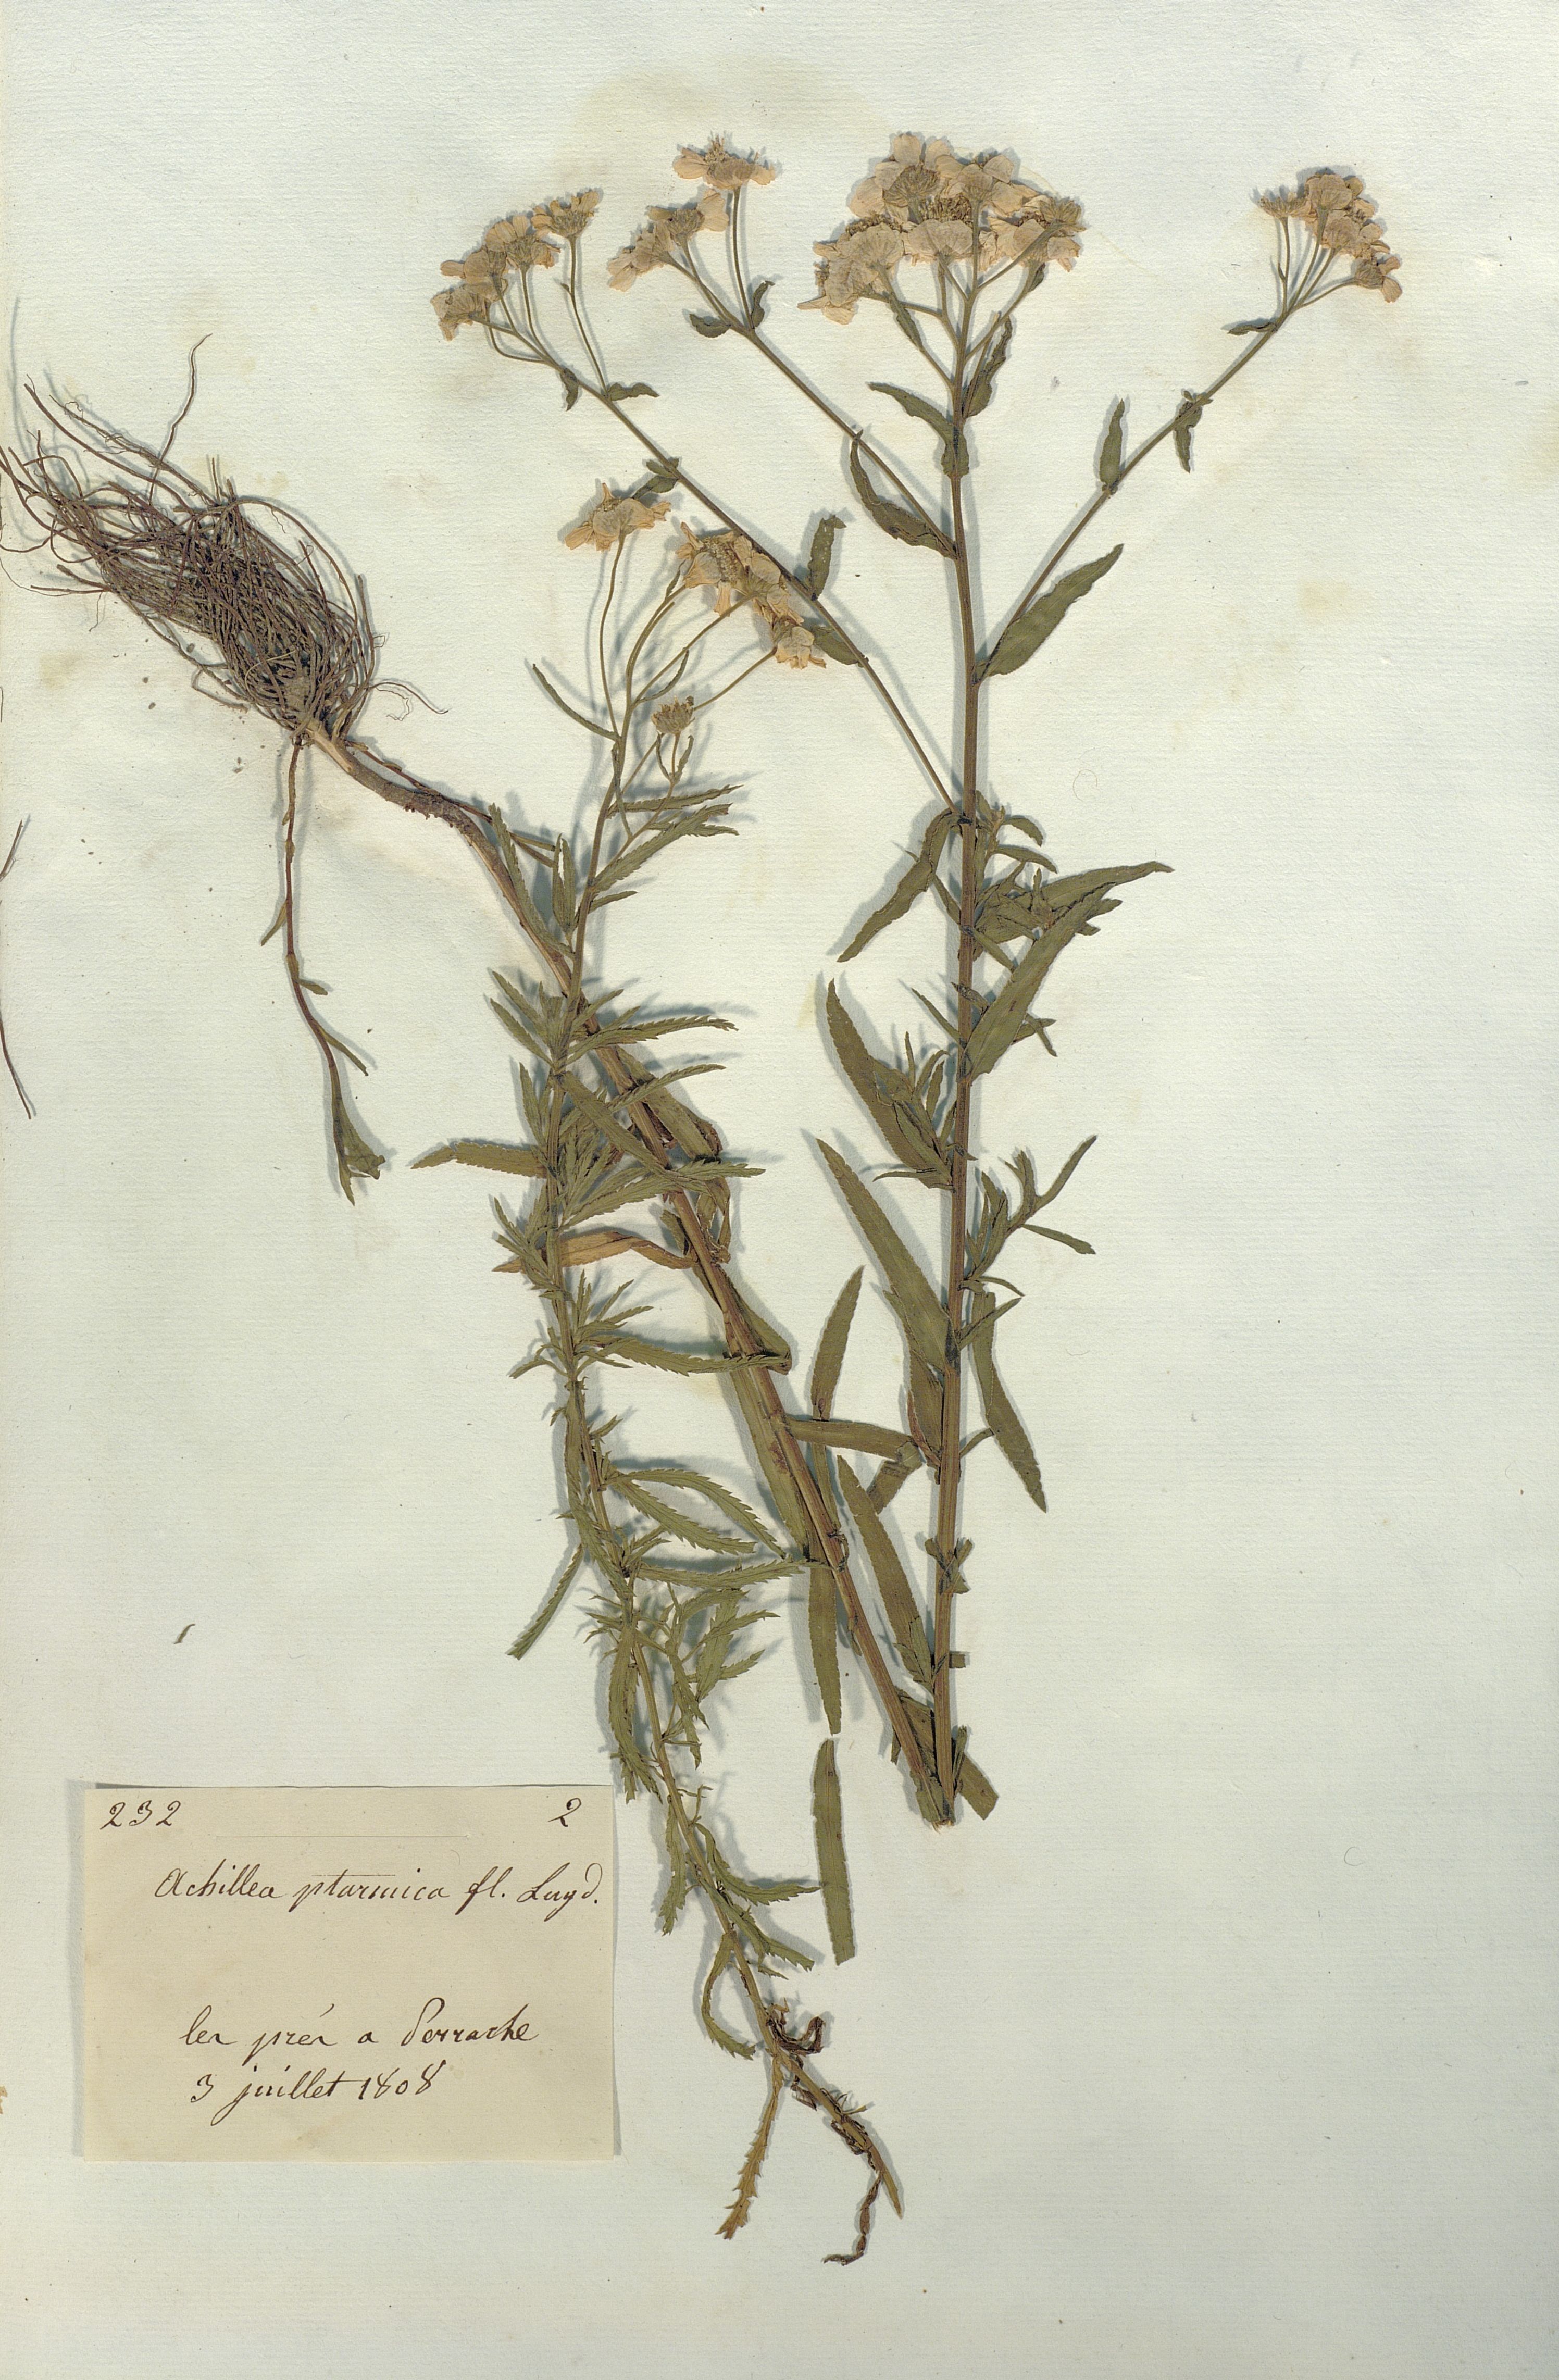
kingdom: Plantae
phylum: Tracheophyta
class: Magnoliopsida
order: Asterales
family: Asteraceae
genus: Achillea
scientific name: Achillea ptarmica
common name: Sneezeweed
